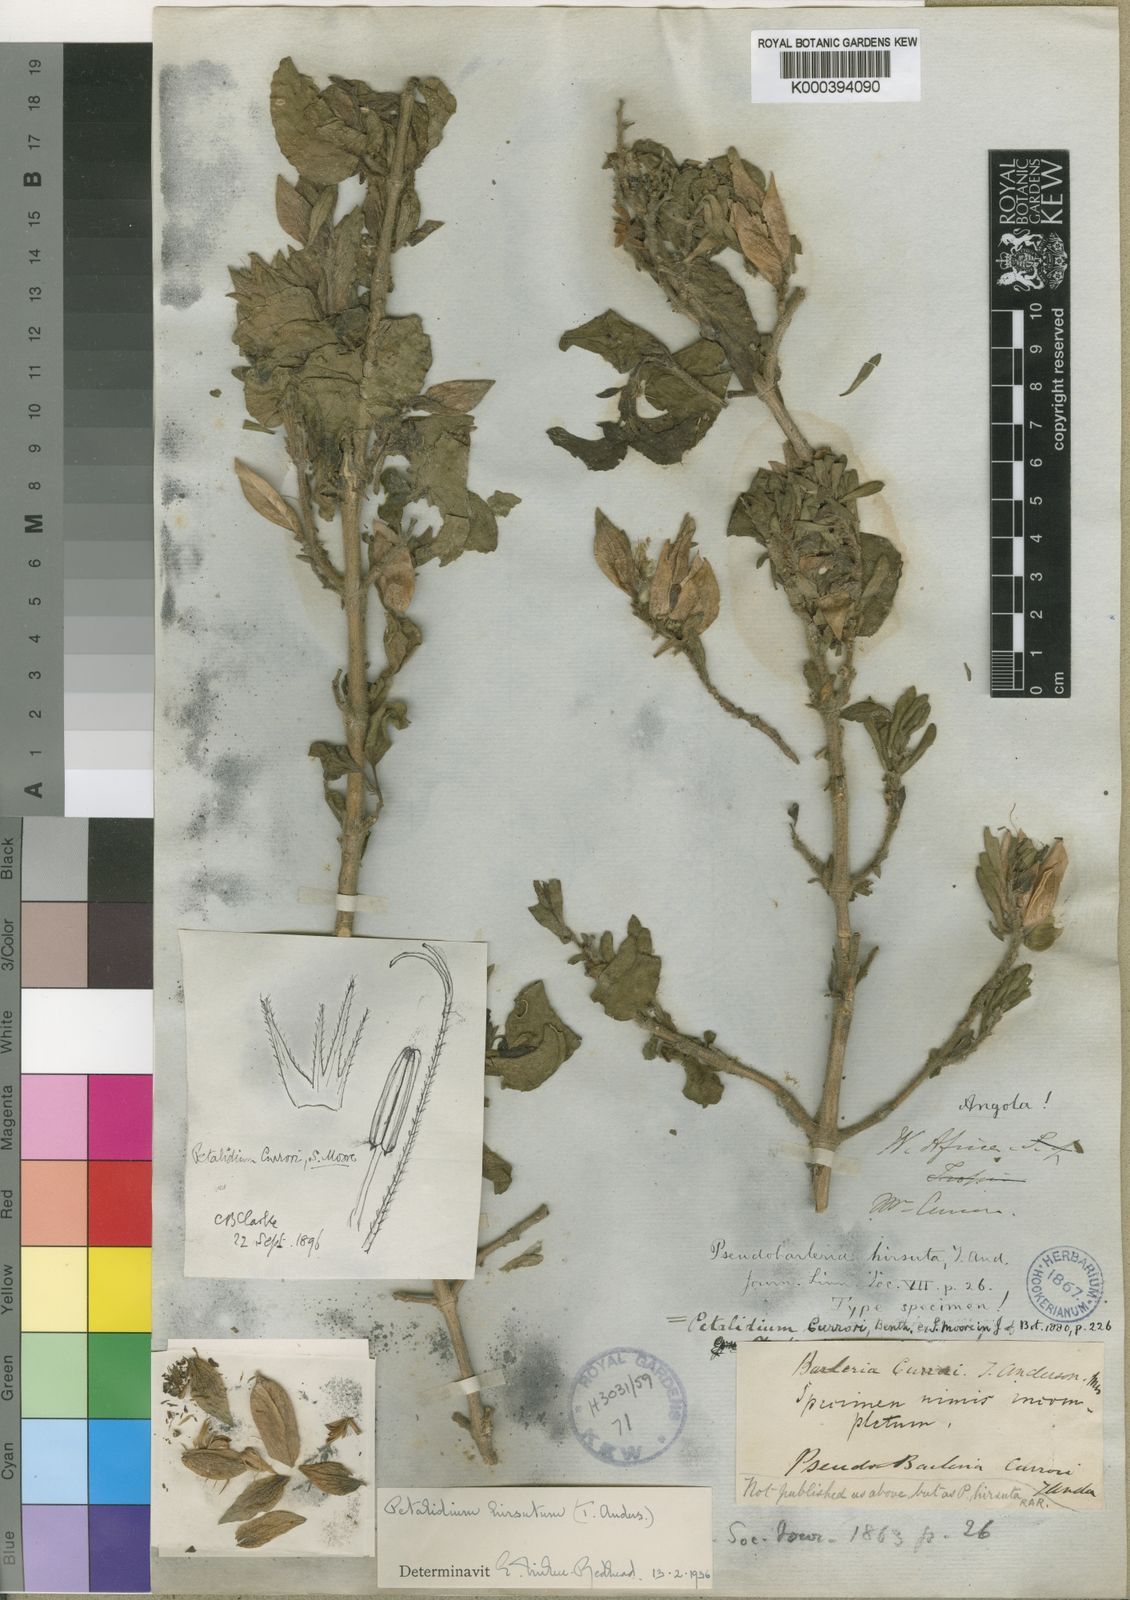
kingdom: Plantae
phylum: Tracheophyta
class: Magnoliopsida
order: Lamiales
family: Acanthaceae
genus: Petalidium
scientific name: Petalidium currorii
